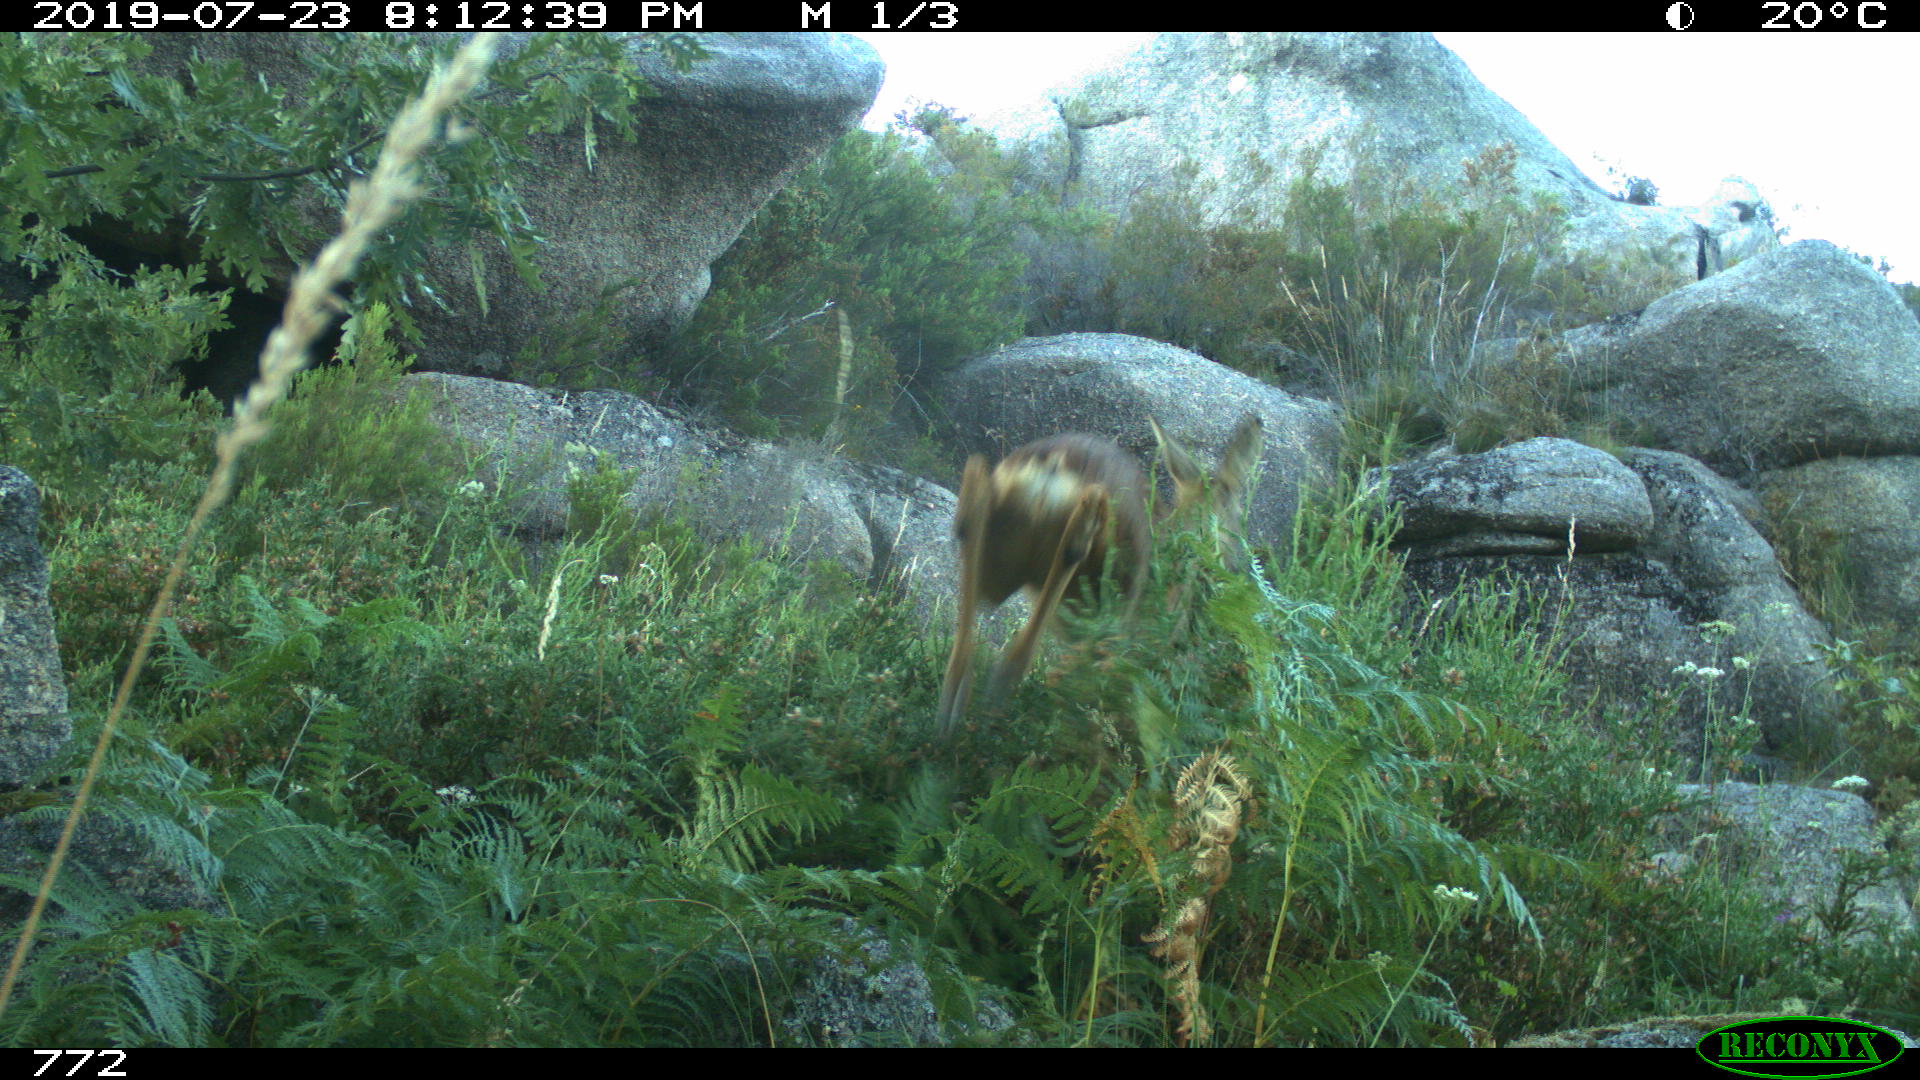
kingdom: Animalia
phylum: Chordata
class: Mammalia
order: Artiodactyla
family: Cervidae
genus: Capreolus
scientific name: Capreolus capreolus
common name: Western roe deer
